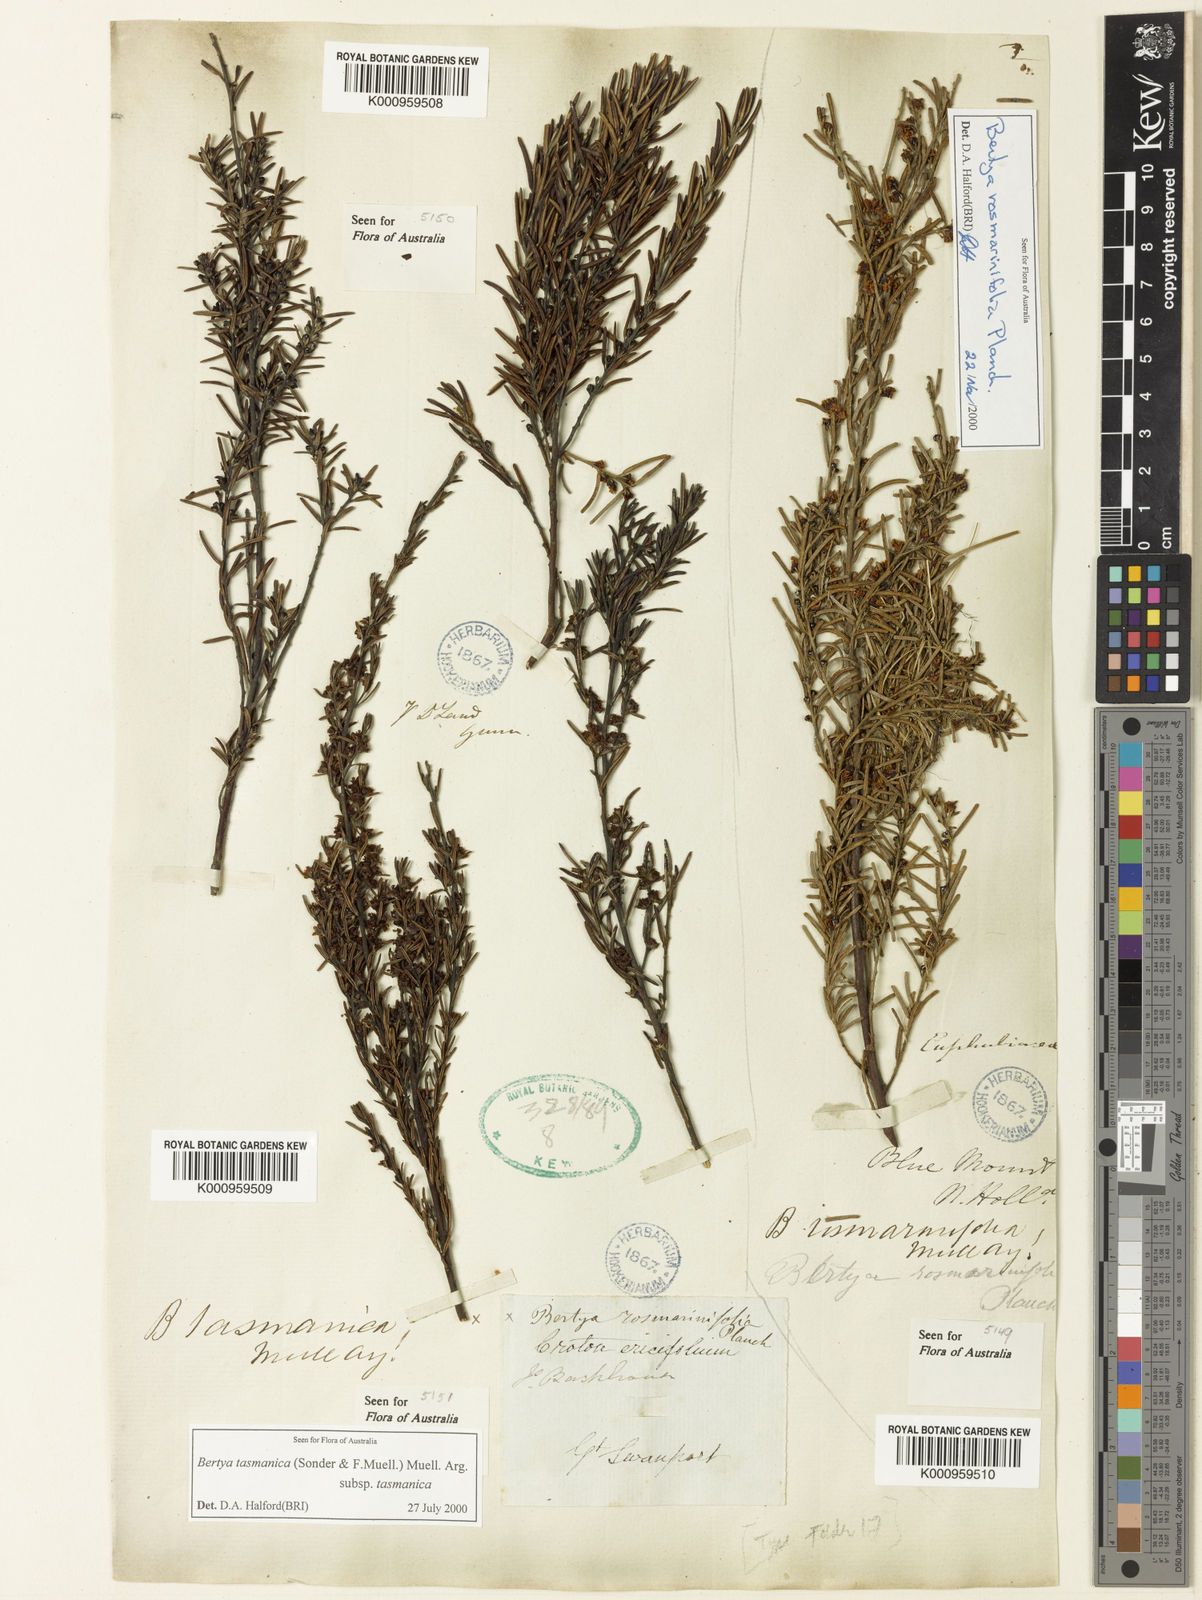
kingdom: Plantae
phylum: Tracheophyta
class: Magnoliopsida
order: Malpighiales
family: Euphorbiaceae
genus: Bertya
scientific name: Bertya rosmarinifolia
